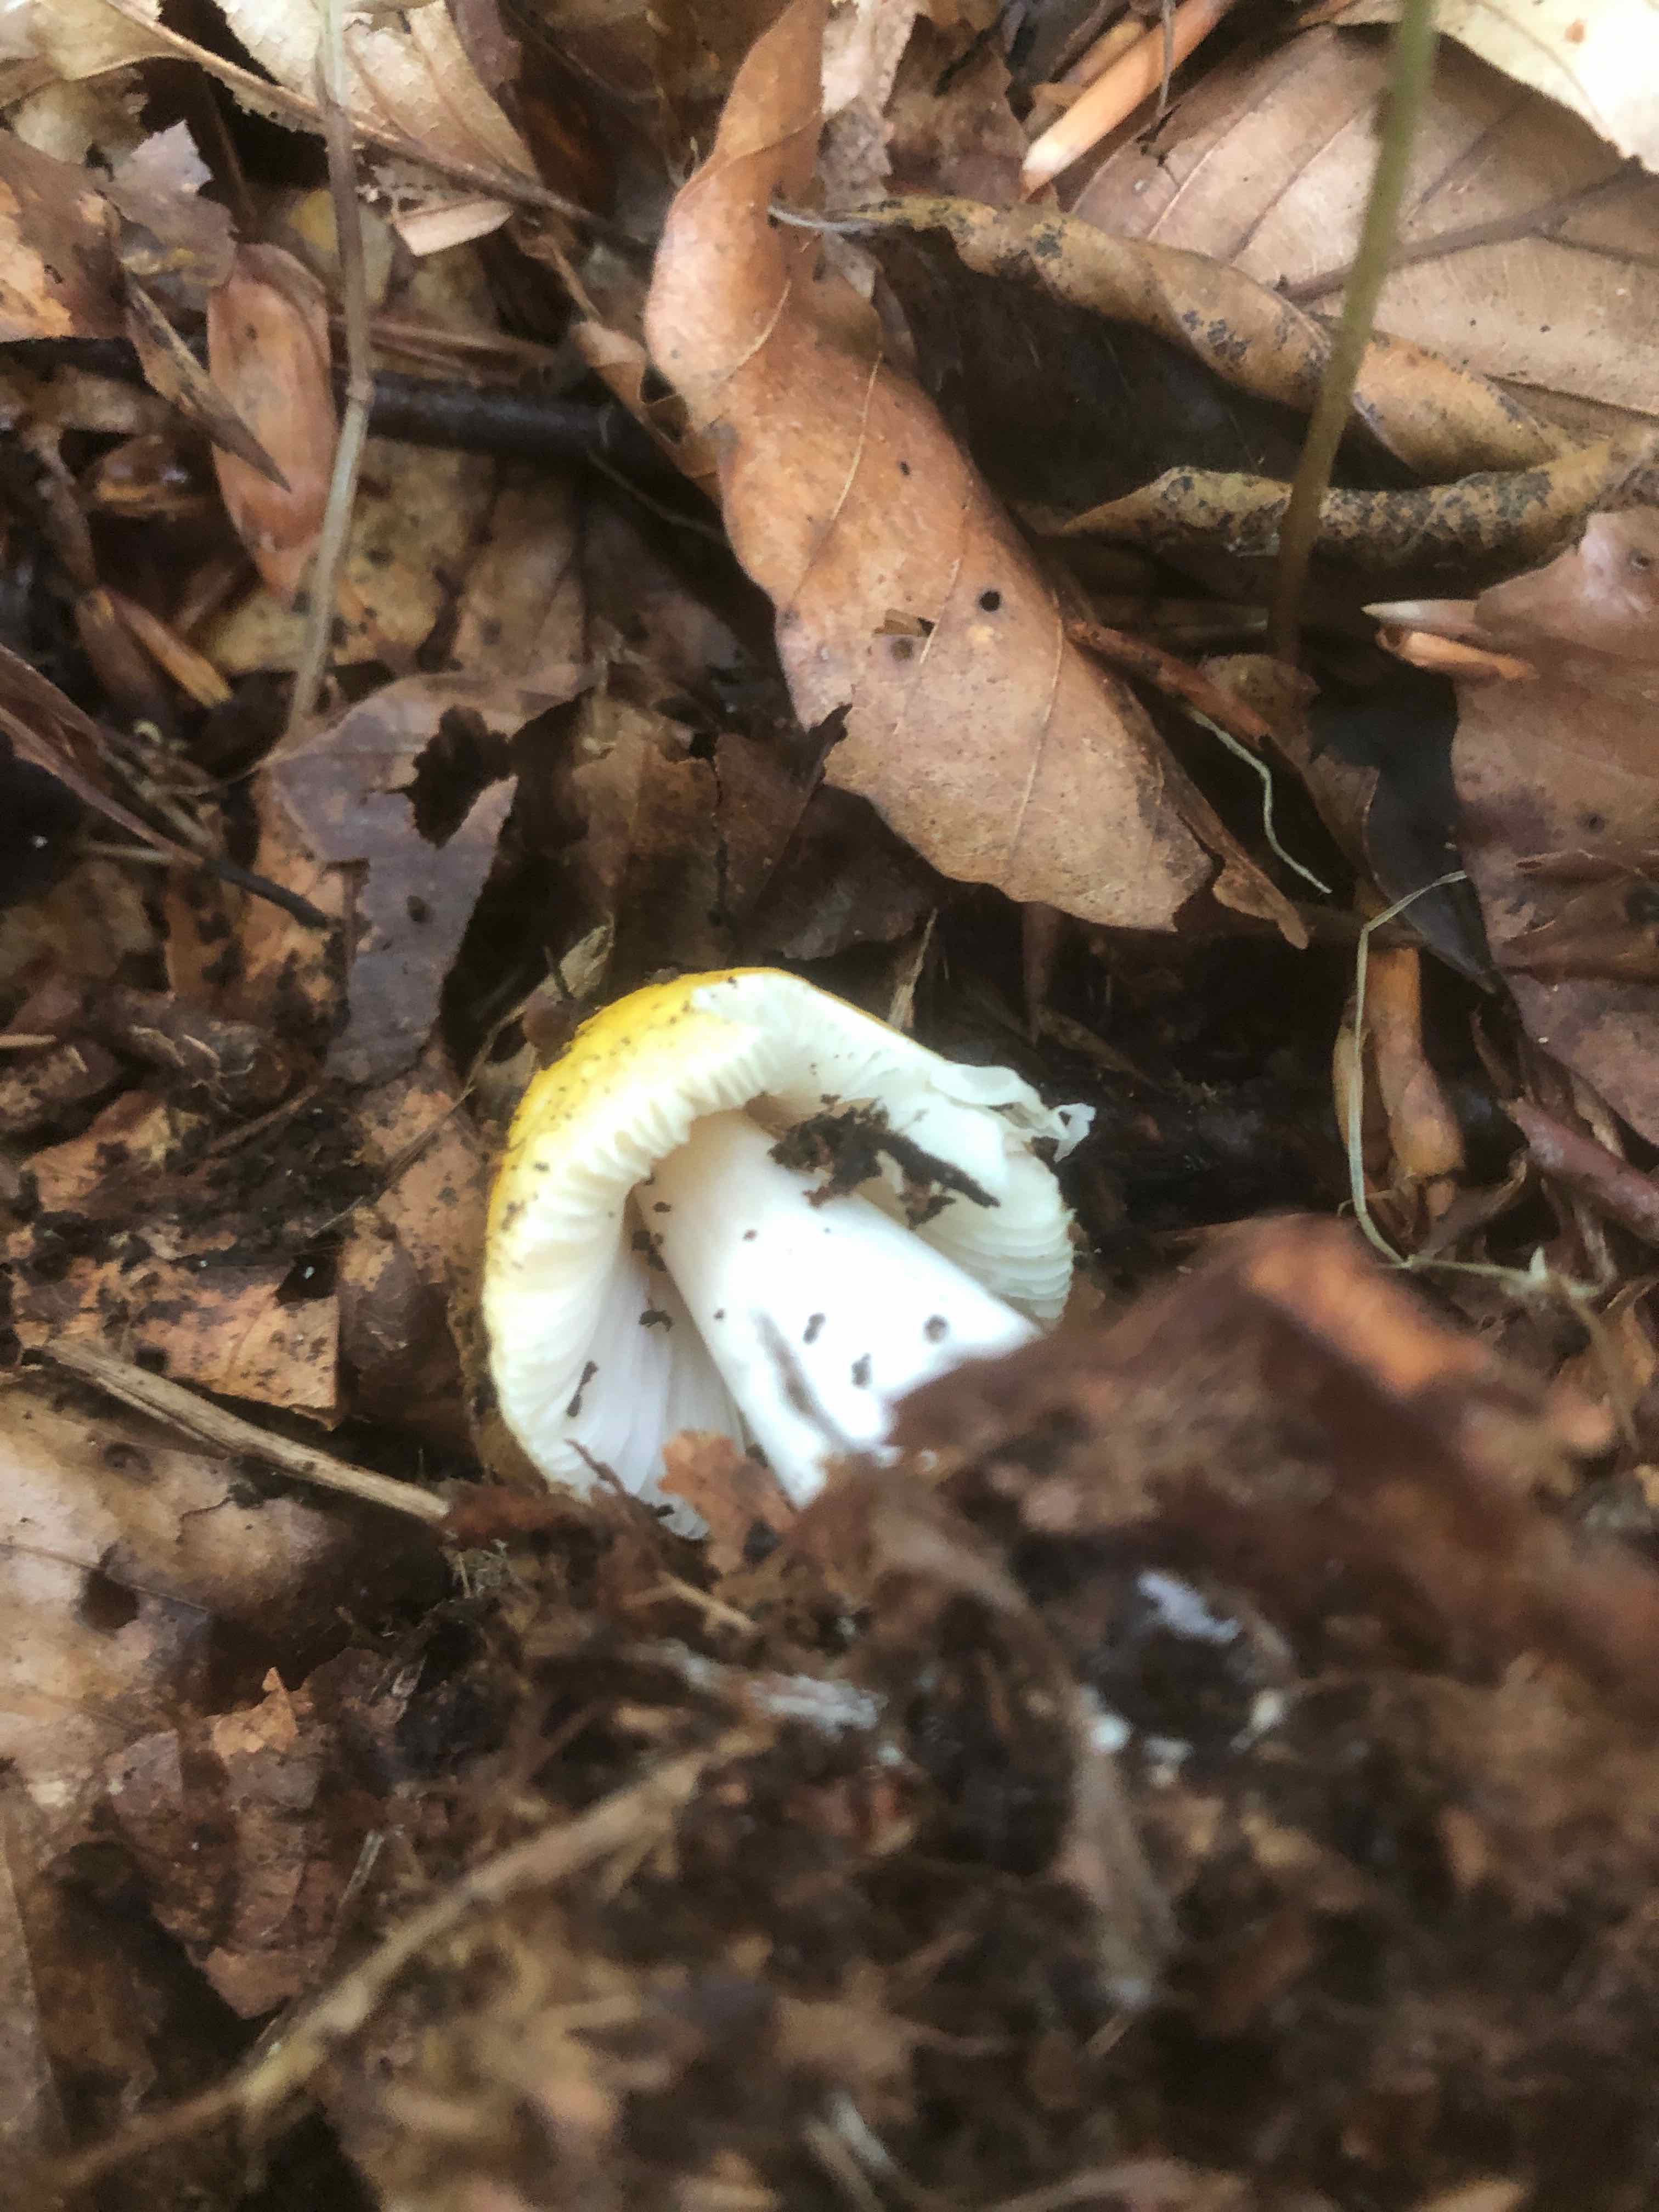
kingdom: Fungi
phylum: Basidiomycota
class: Agaricomycetes
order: Russulales
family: Russulaceae
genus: Russula
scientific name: Russula solaris
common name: sol-skørhat
